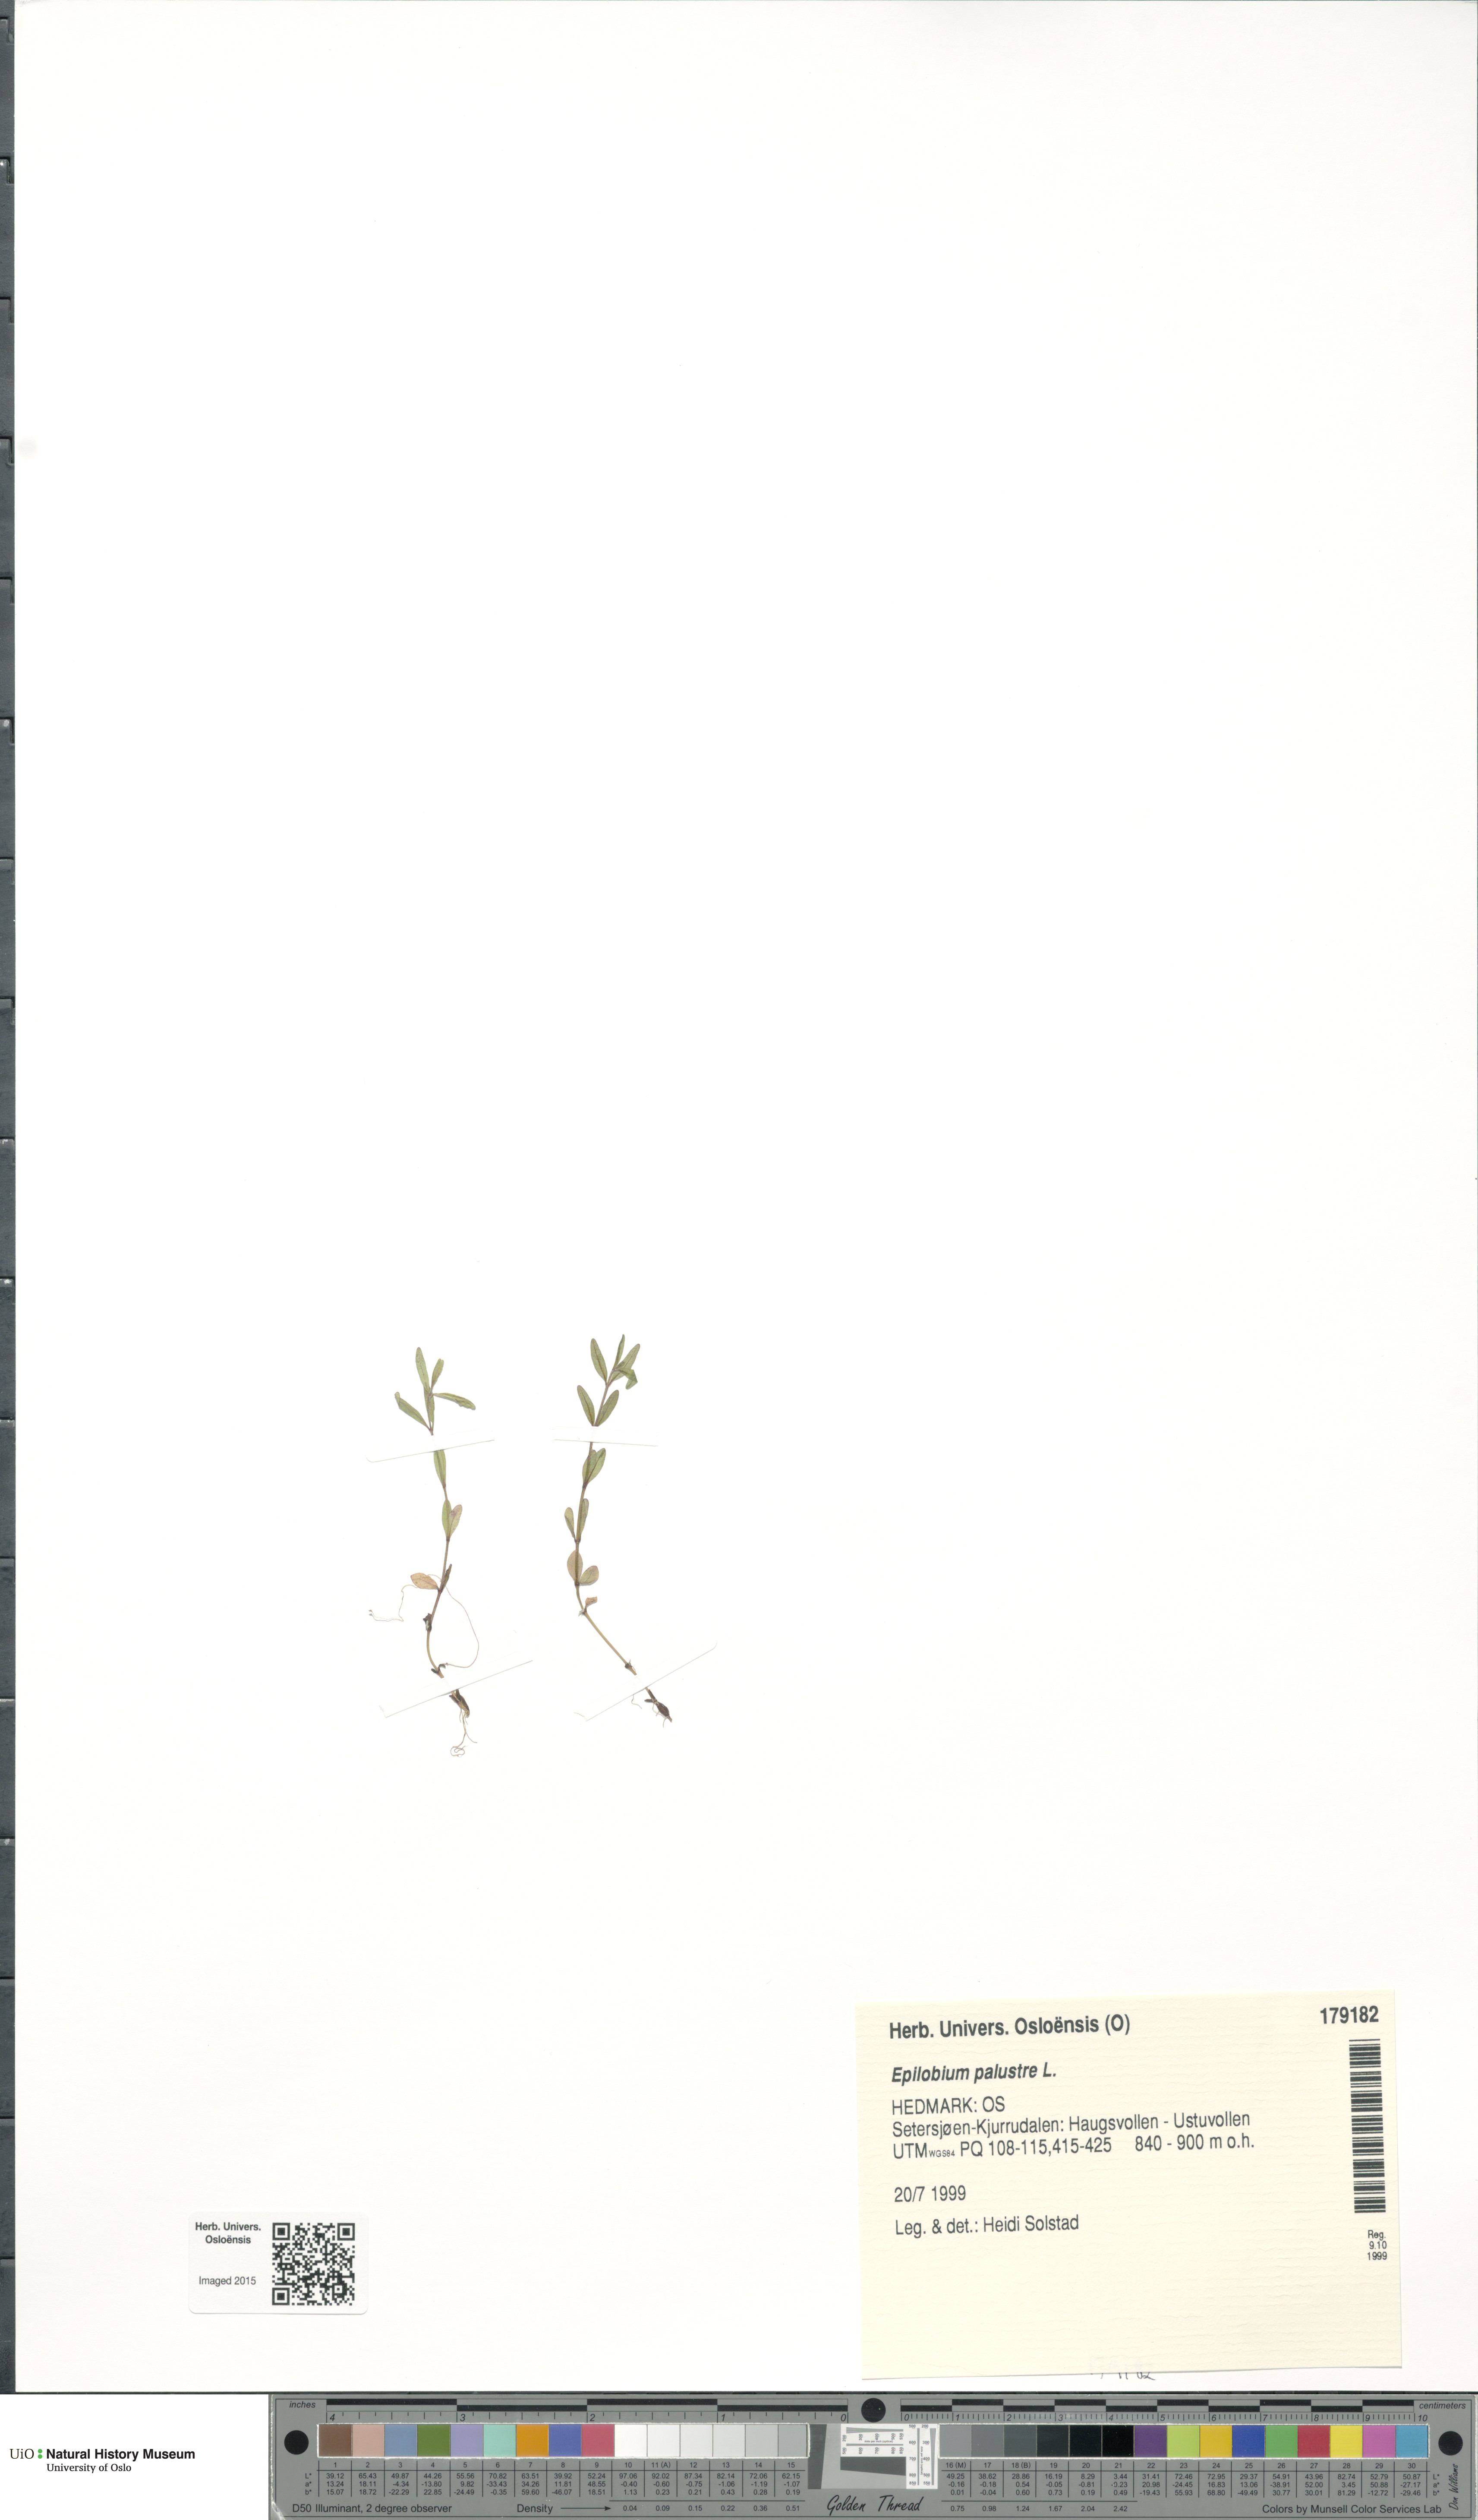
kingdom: Plantae
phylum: Tracheophyta
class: Magnoliopsida
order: Myrtales
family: Onagraceae
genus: Epilobium
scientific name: Epilobium palustre
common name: Marsh willowherb
